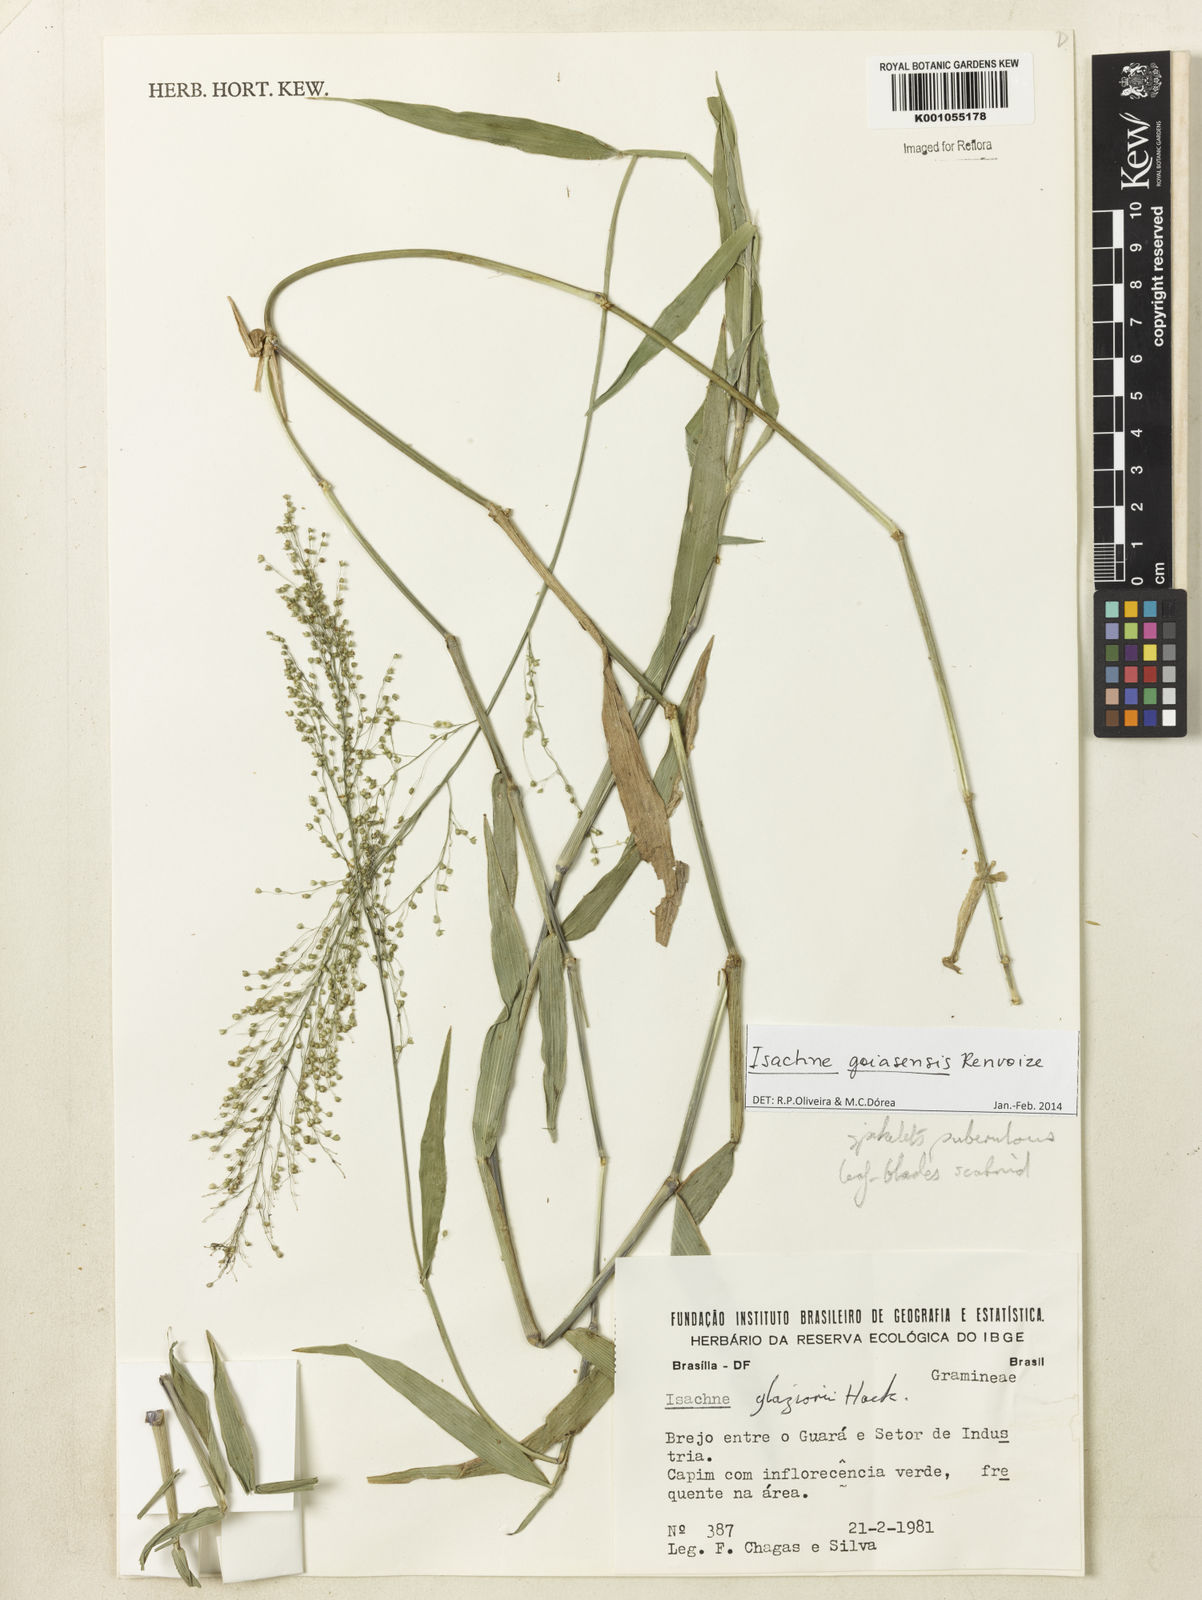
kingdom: Plantae
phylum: Tracheophyta
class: Liliopsida
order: Poales
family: Poaceae
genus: Isachne
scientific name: Isachne goiasensis
